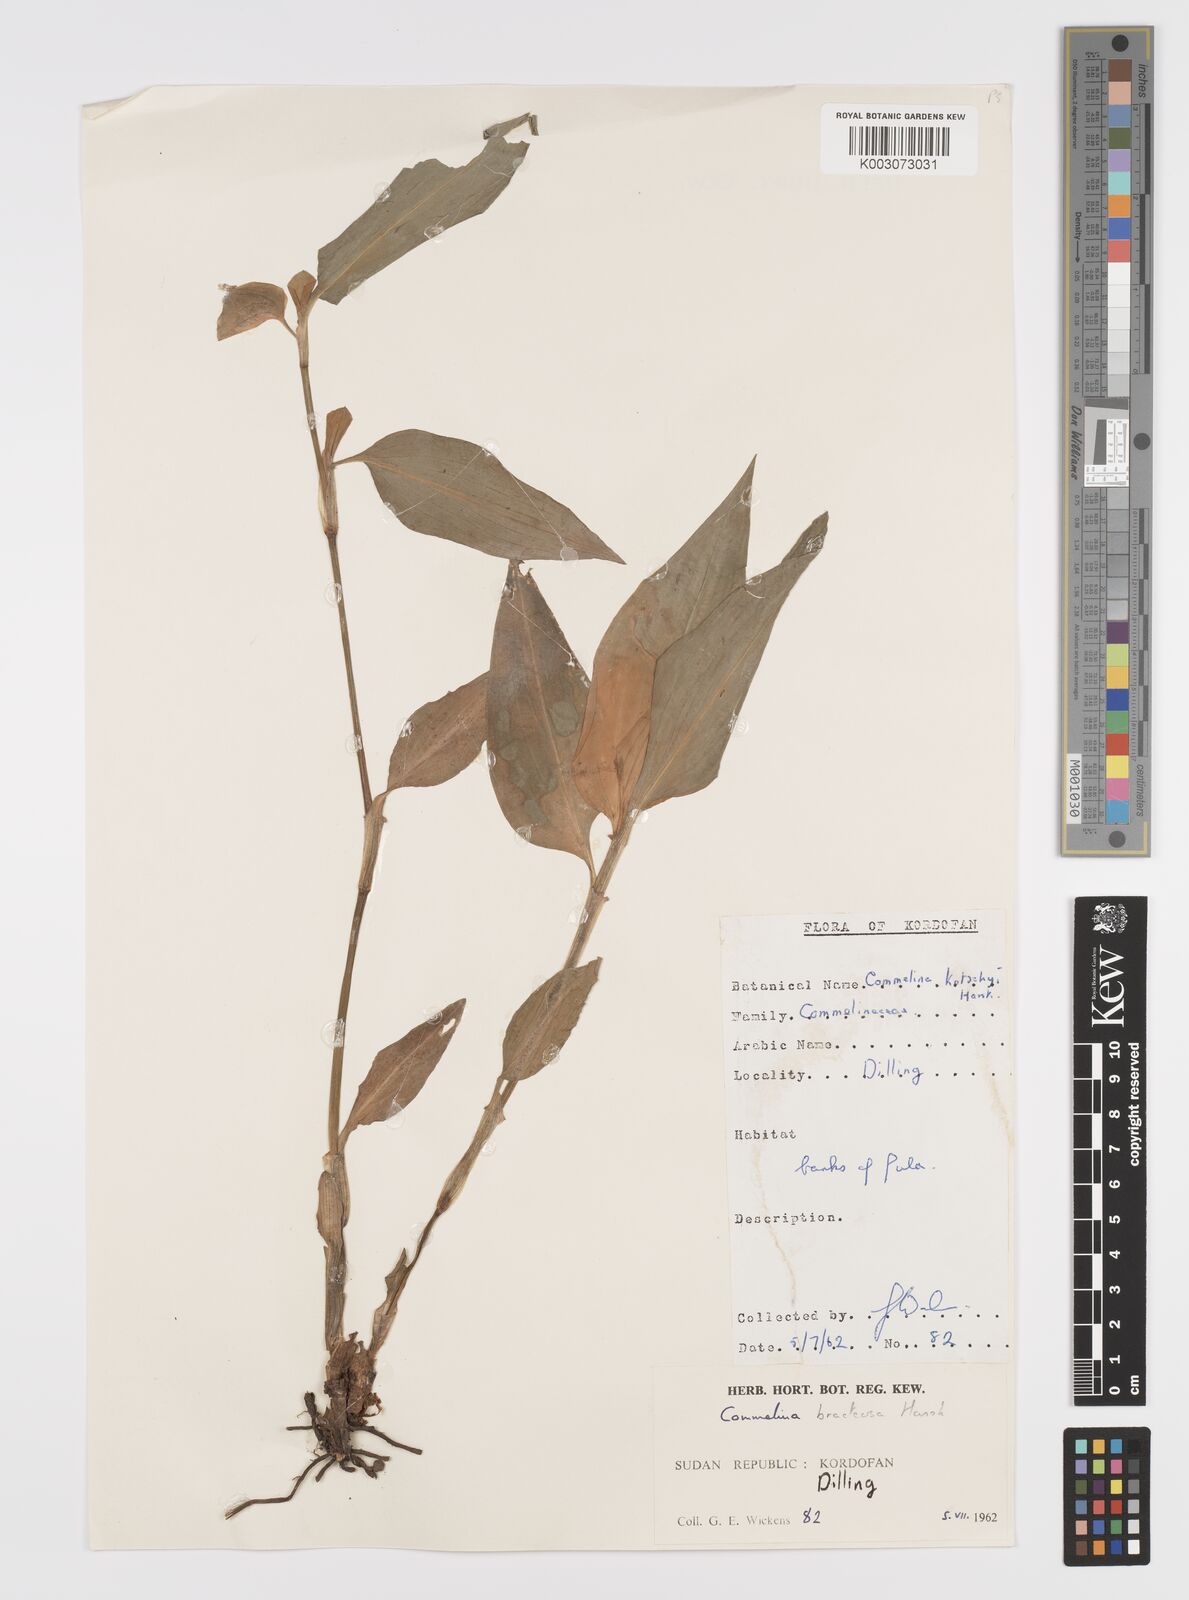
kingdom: Plantae
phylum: Tracheophyta
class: Liliopsida
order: Commelinales
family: Commelinaceae
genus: Commelina
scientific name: Commelina bracteosa
